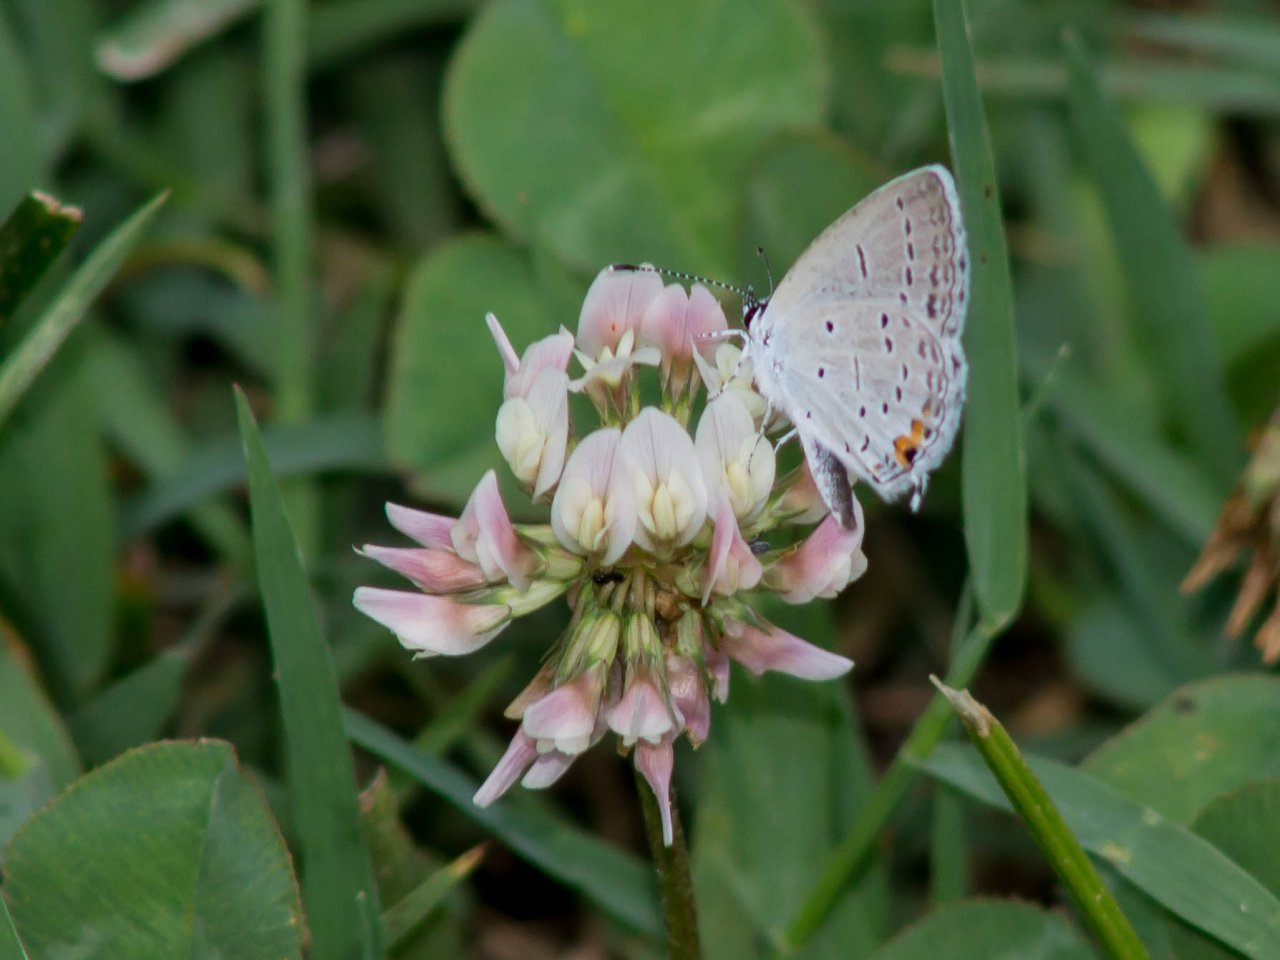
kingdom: Animalia
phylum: Arthropoda
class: Insecta
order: Lepidoptera
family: Lycaenidae
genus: Elkalyce
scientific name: Elkalyce comyntas
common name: Eastern Tailed-Blue
